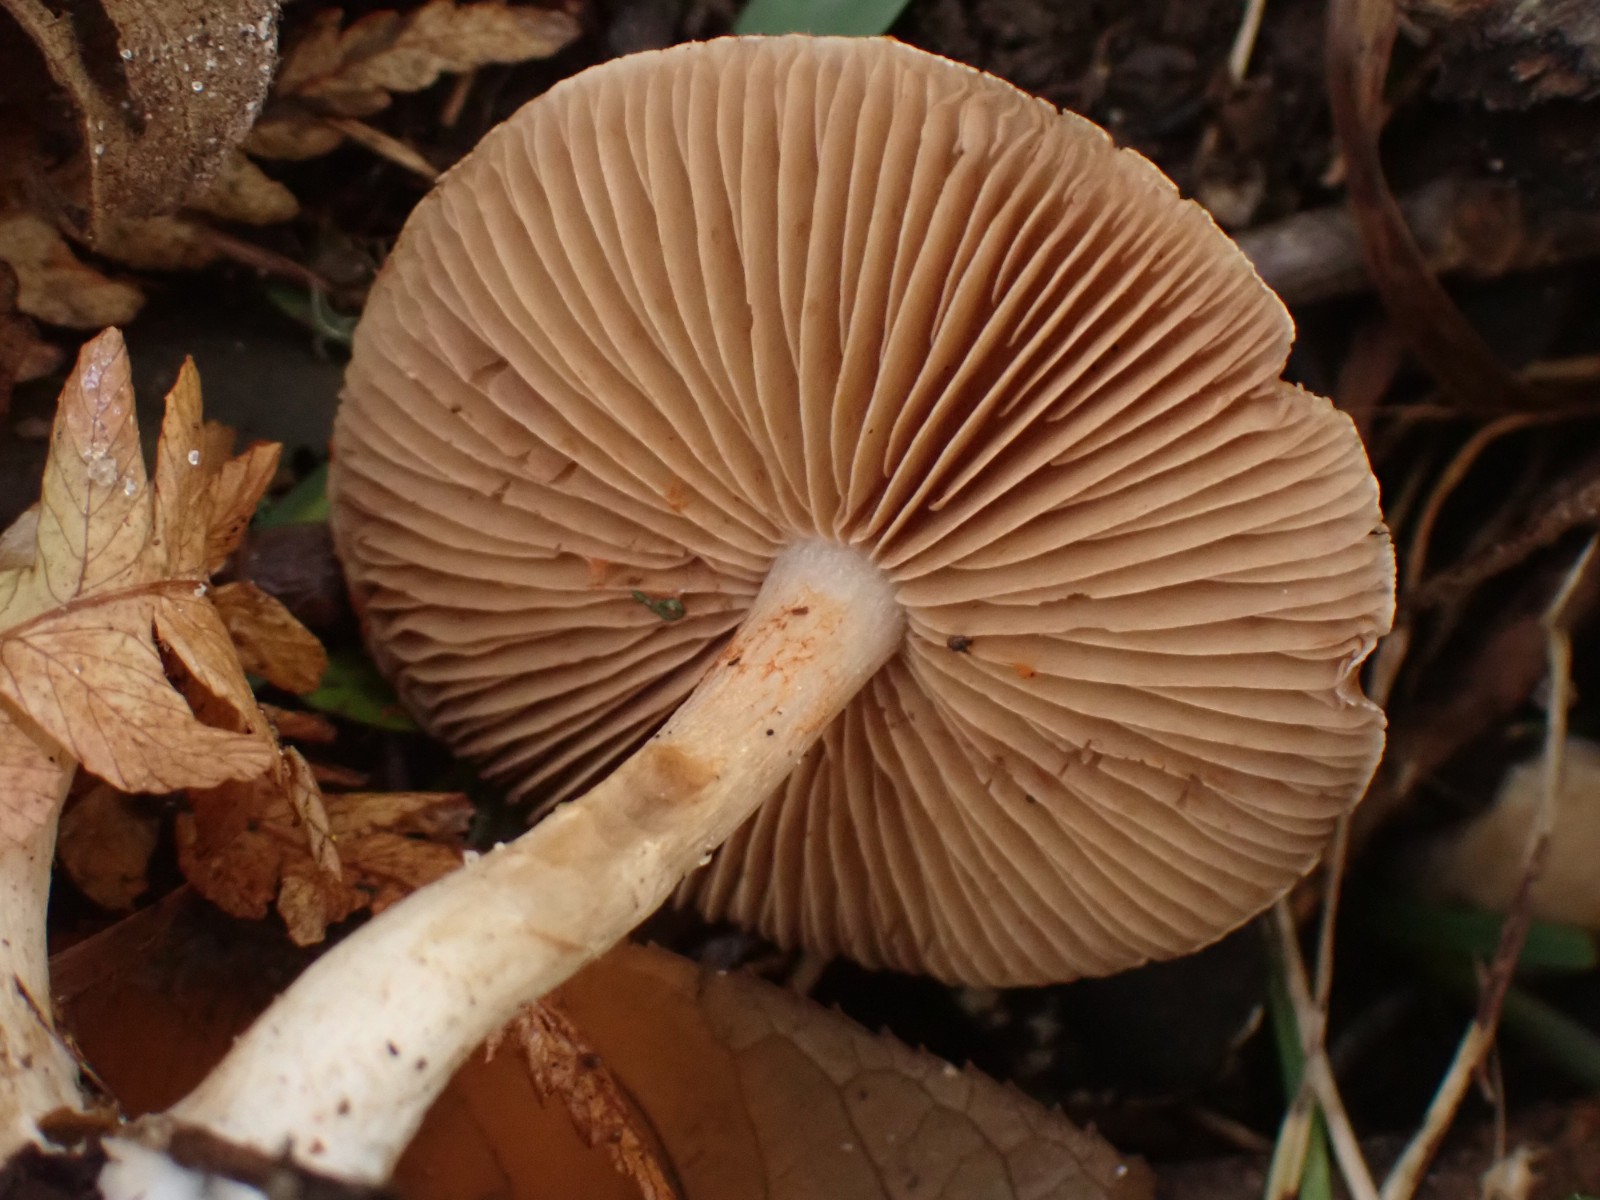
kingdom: Fungi
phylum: Basidiomycota
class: Agaricomycetes
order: Agaricales
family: Cortinariaceae
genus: Cortinarius
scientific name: Cortinarius
